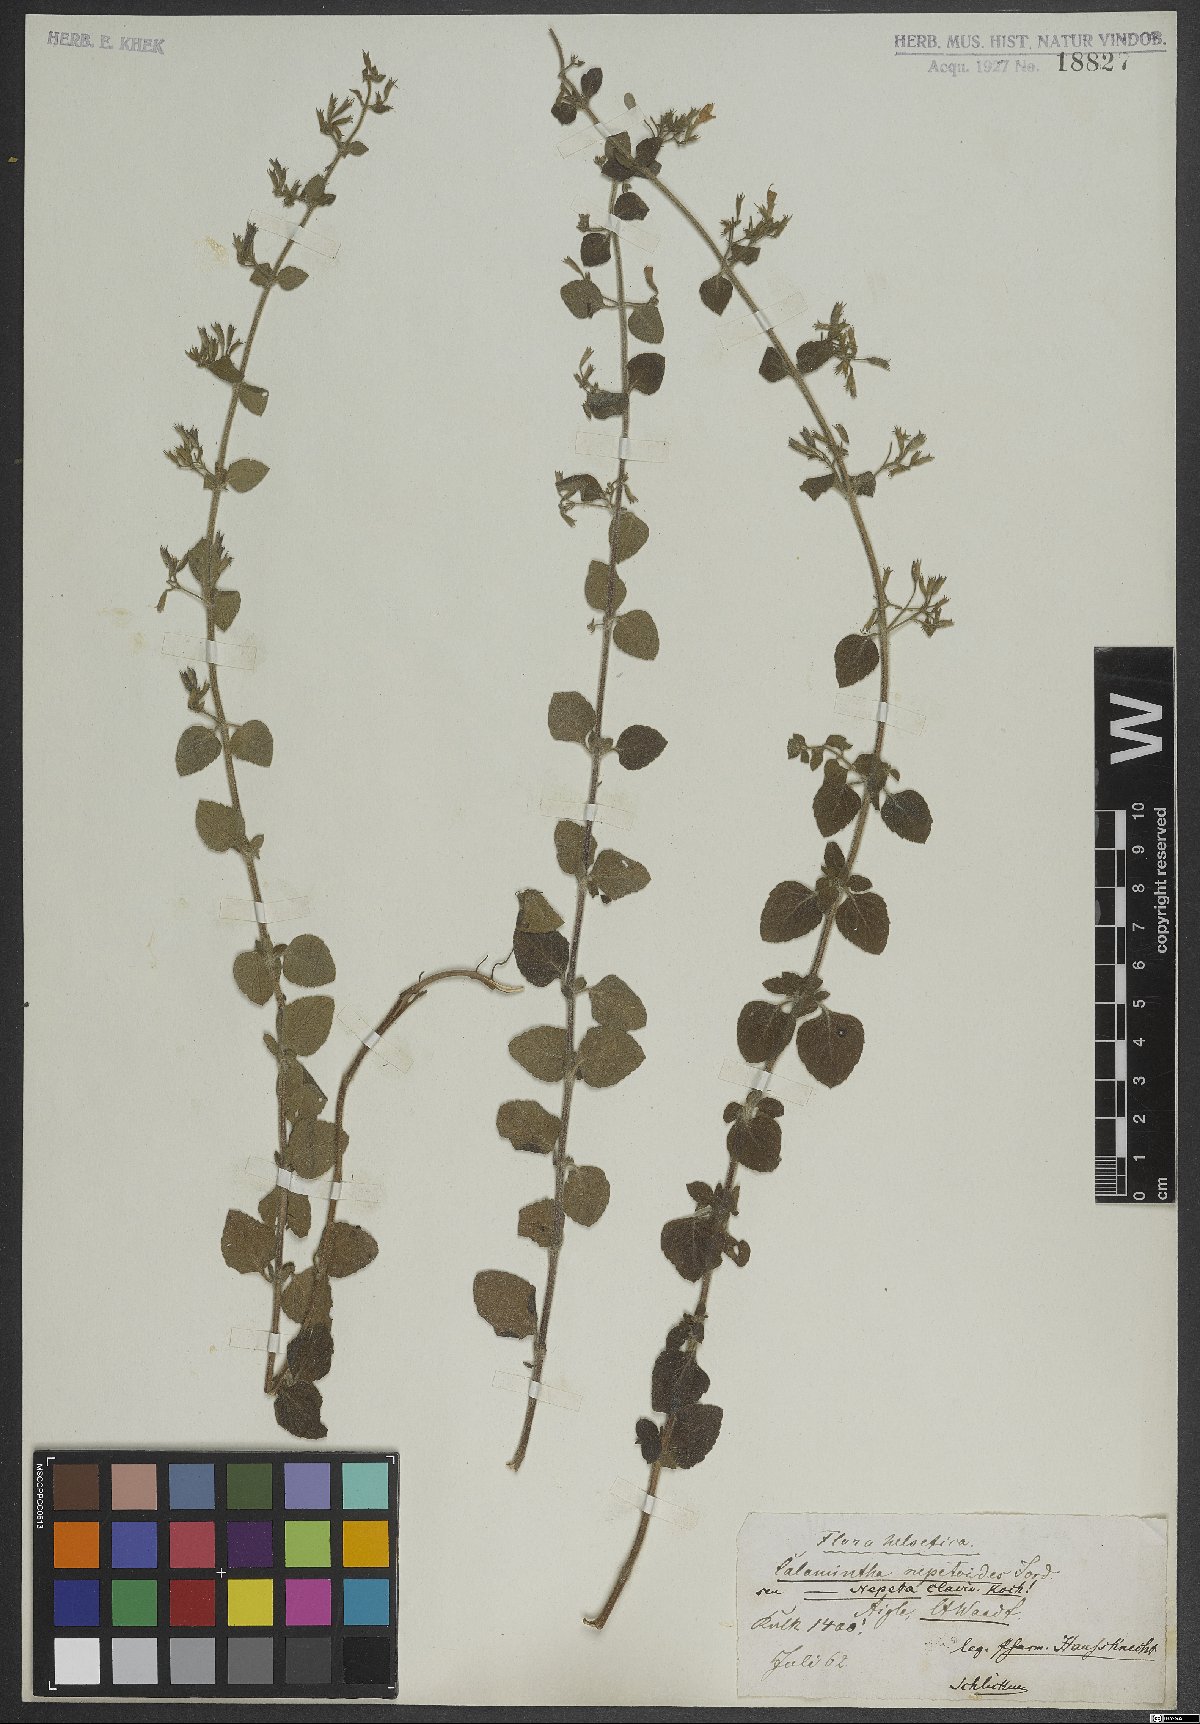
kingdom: Plantae
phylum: Tracheophyta
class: Magnoliopsida
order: Lamiales
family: Lamiaceae
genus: Clinopodium
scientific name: Clinopodium nepeta
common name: Lesser calamint
